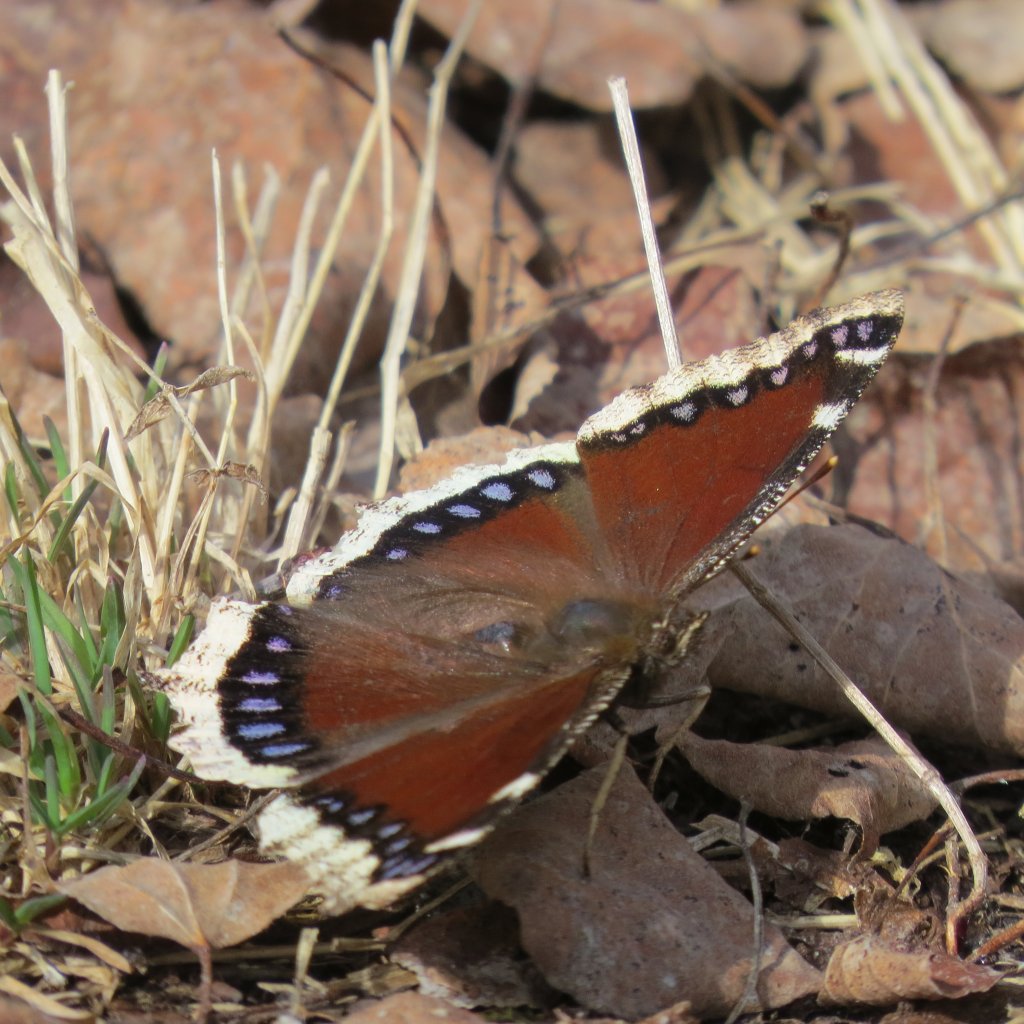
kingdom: Animalia
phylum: Arthropoda
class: Insecta
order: Lepidoptera
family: Nymphalidae
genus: Nymphalis
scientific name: Nymphalis antiopa
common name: Mourning Cloak
